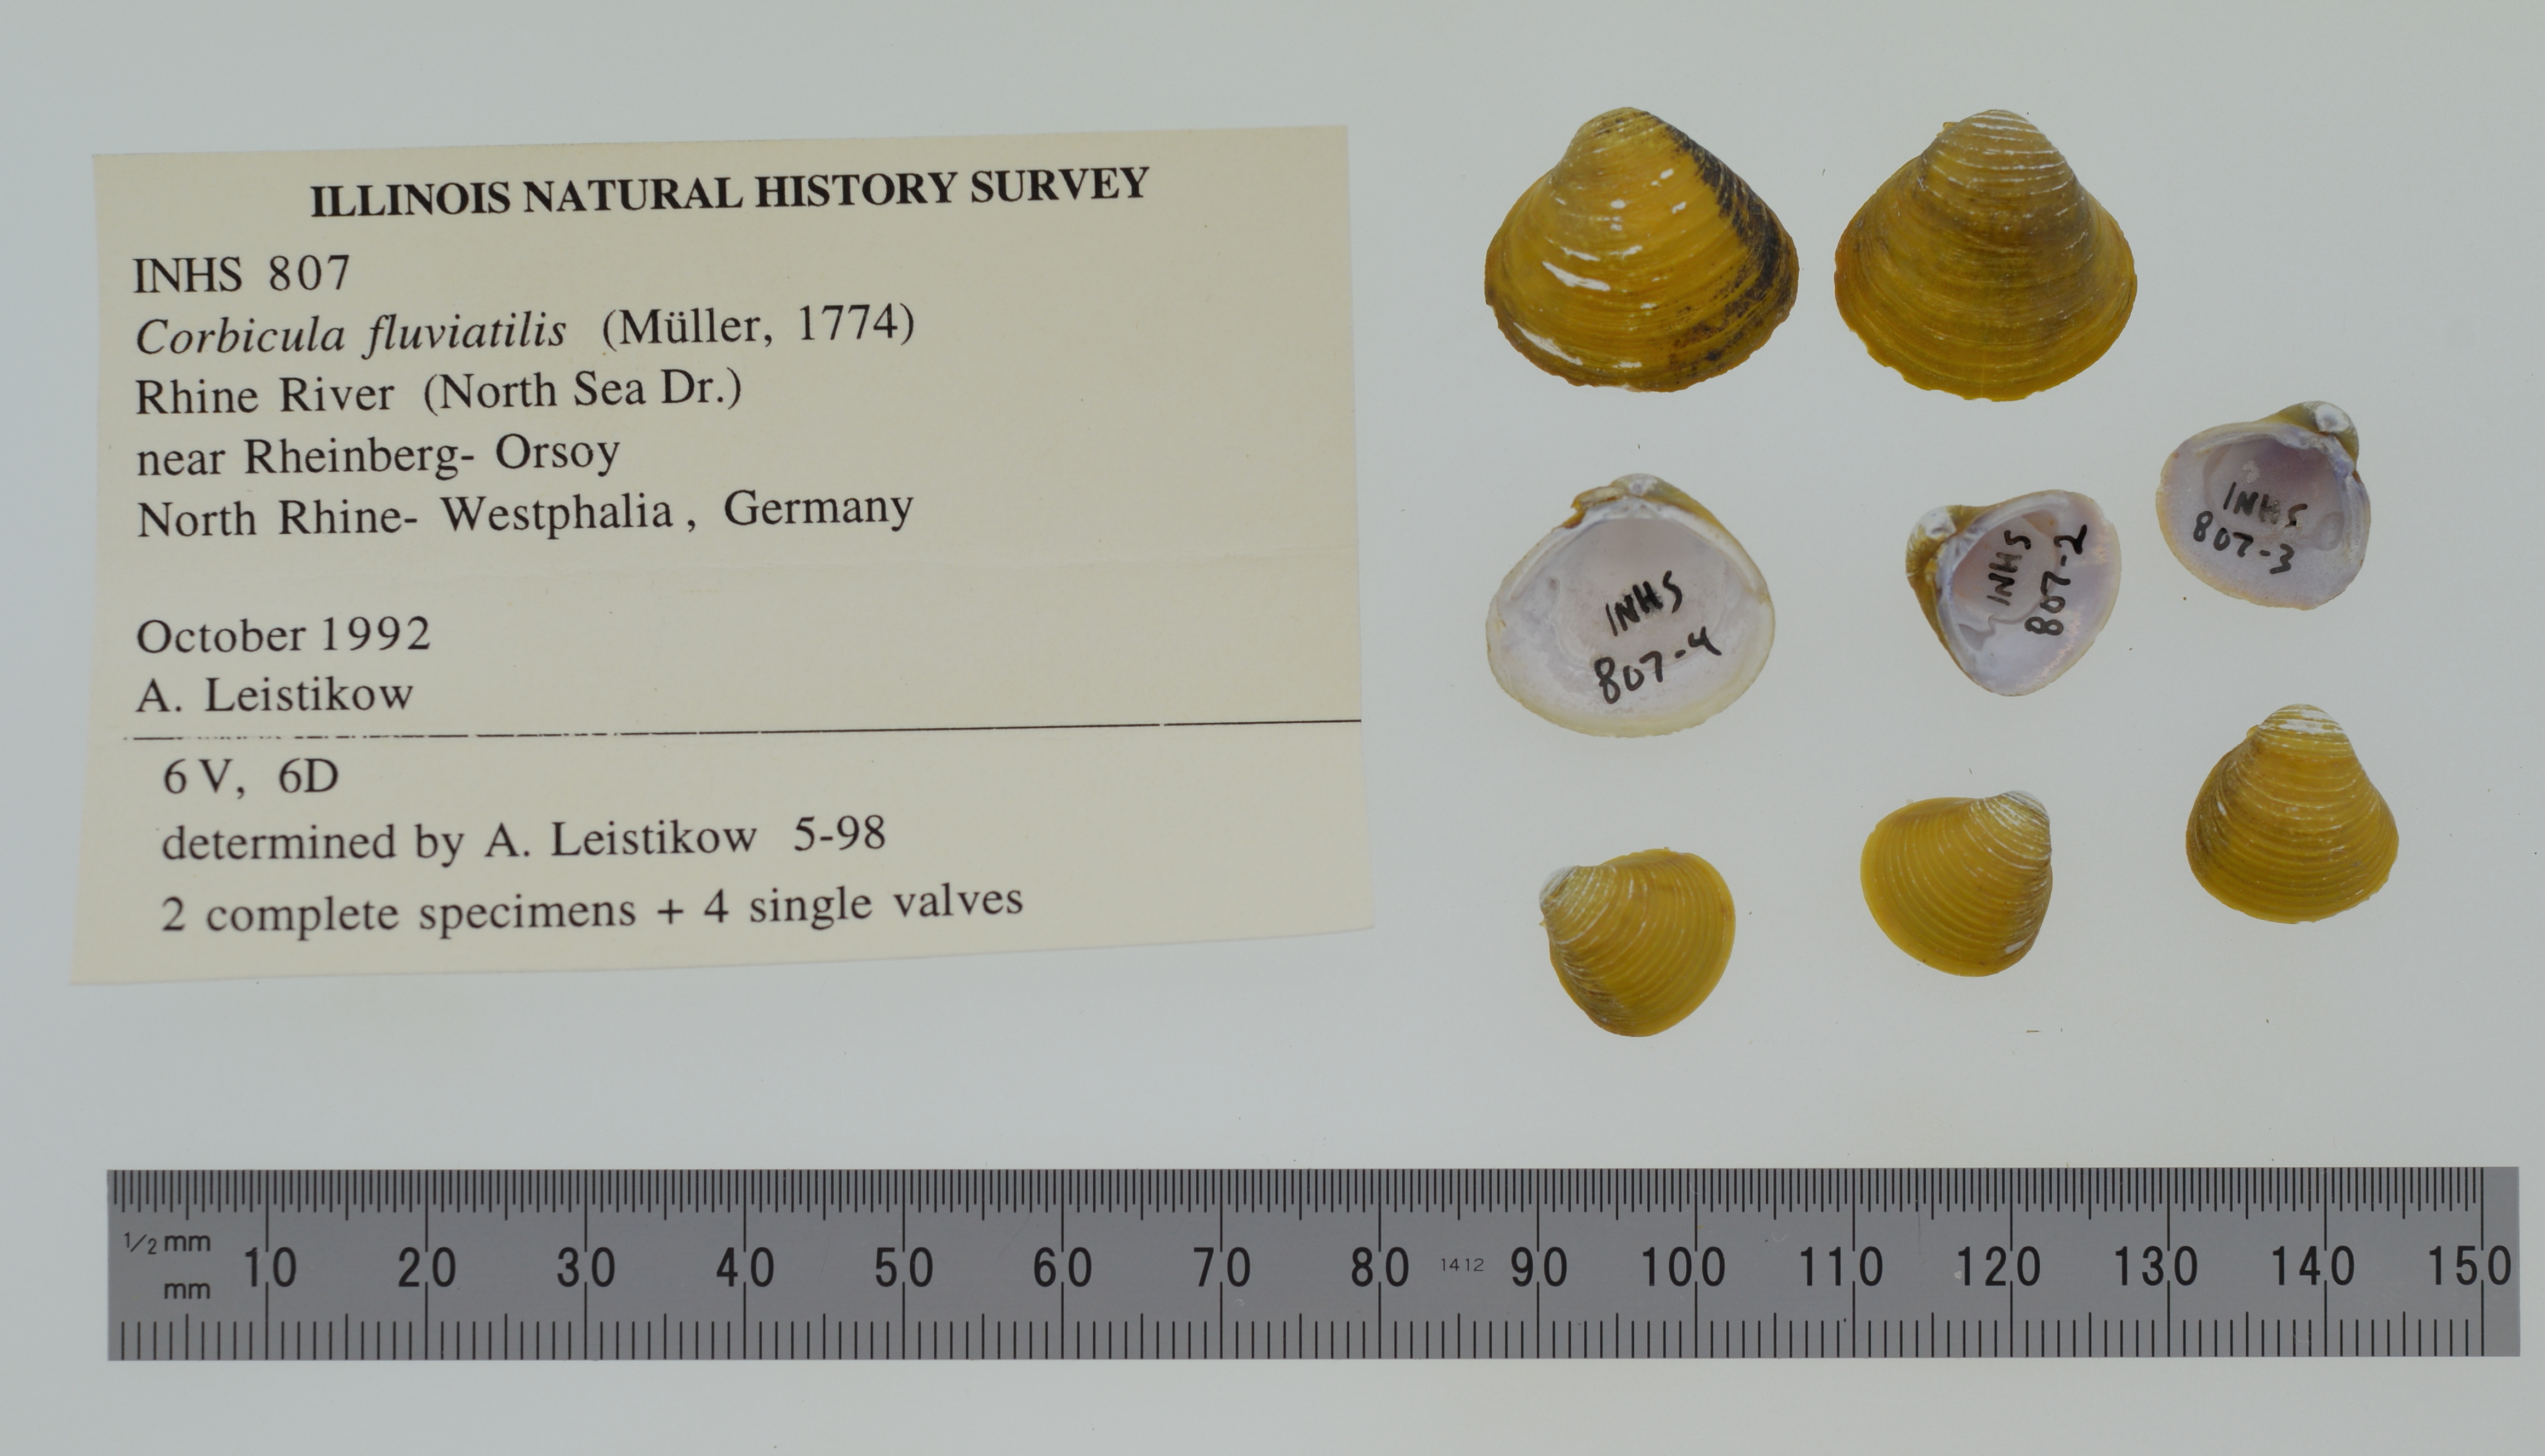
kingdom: Animalia
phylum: Mollusca
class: Bivalvia
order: Venerida
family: Cyrenidae
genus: Corbicula
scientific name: Corbicula fluminalis
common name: Asian clam
